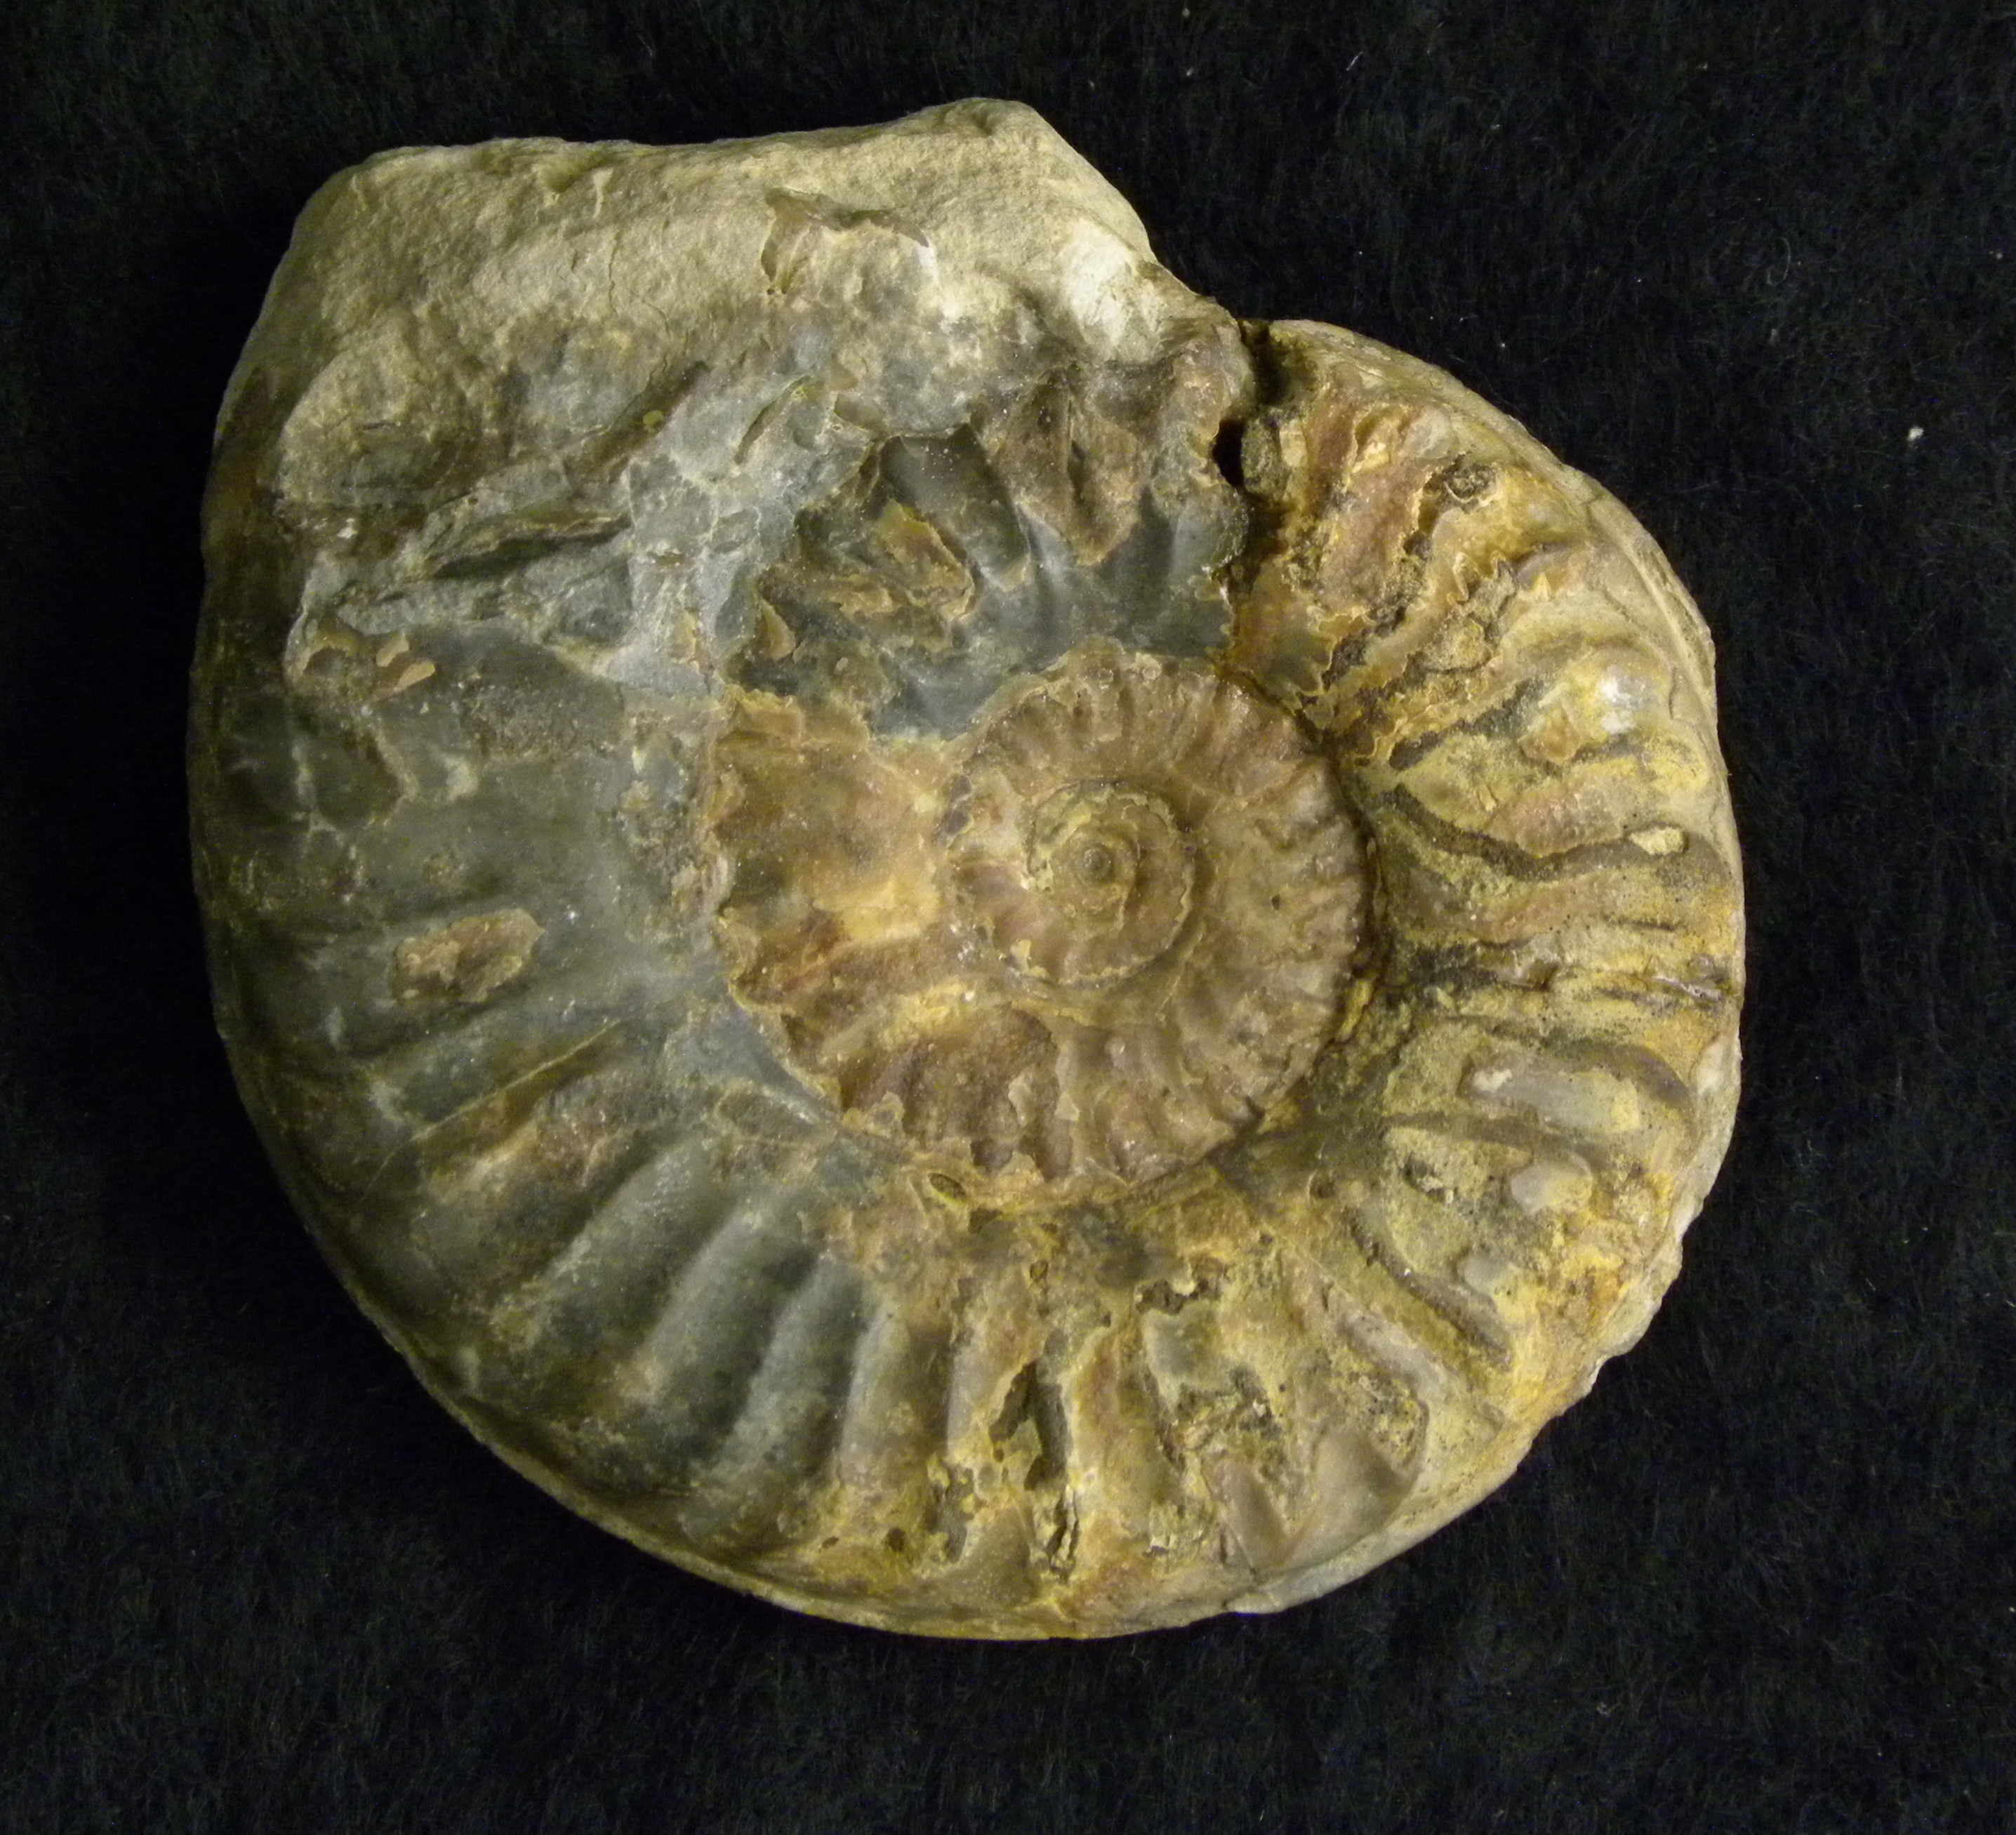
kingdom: Animalia
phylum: Mollusca
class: Cephalopoda
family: Hildoceratidae
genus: Grammoceras
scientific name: Grammoceras thouarsense
